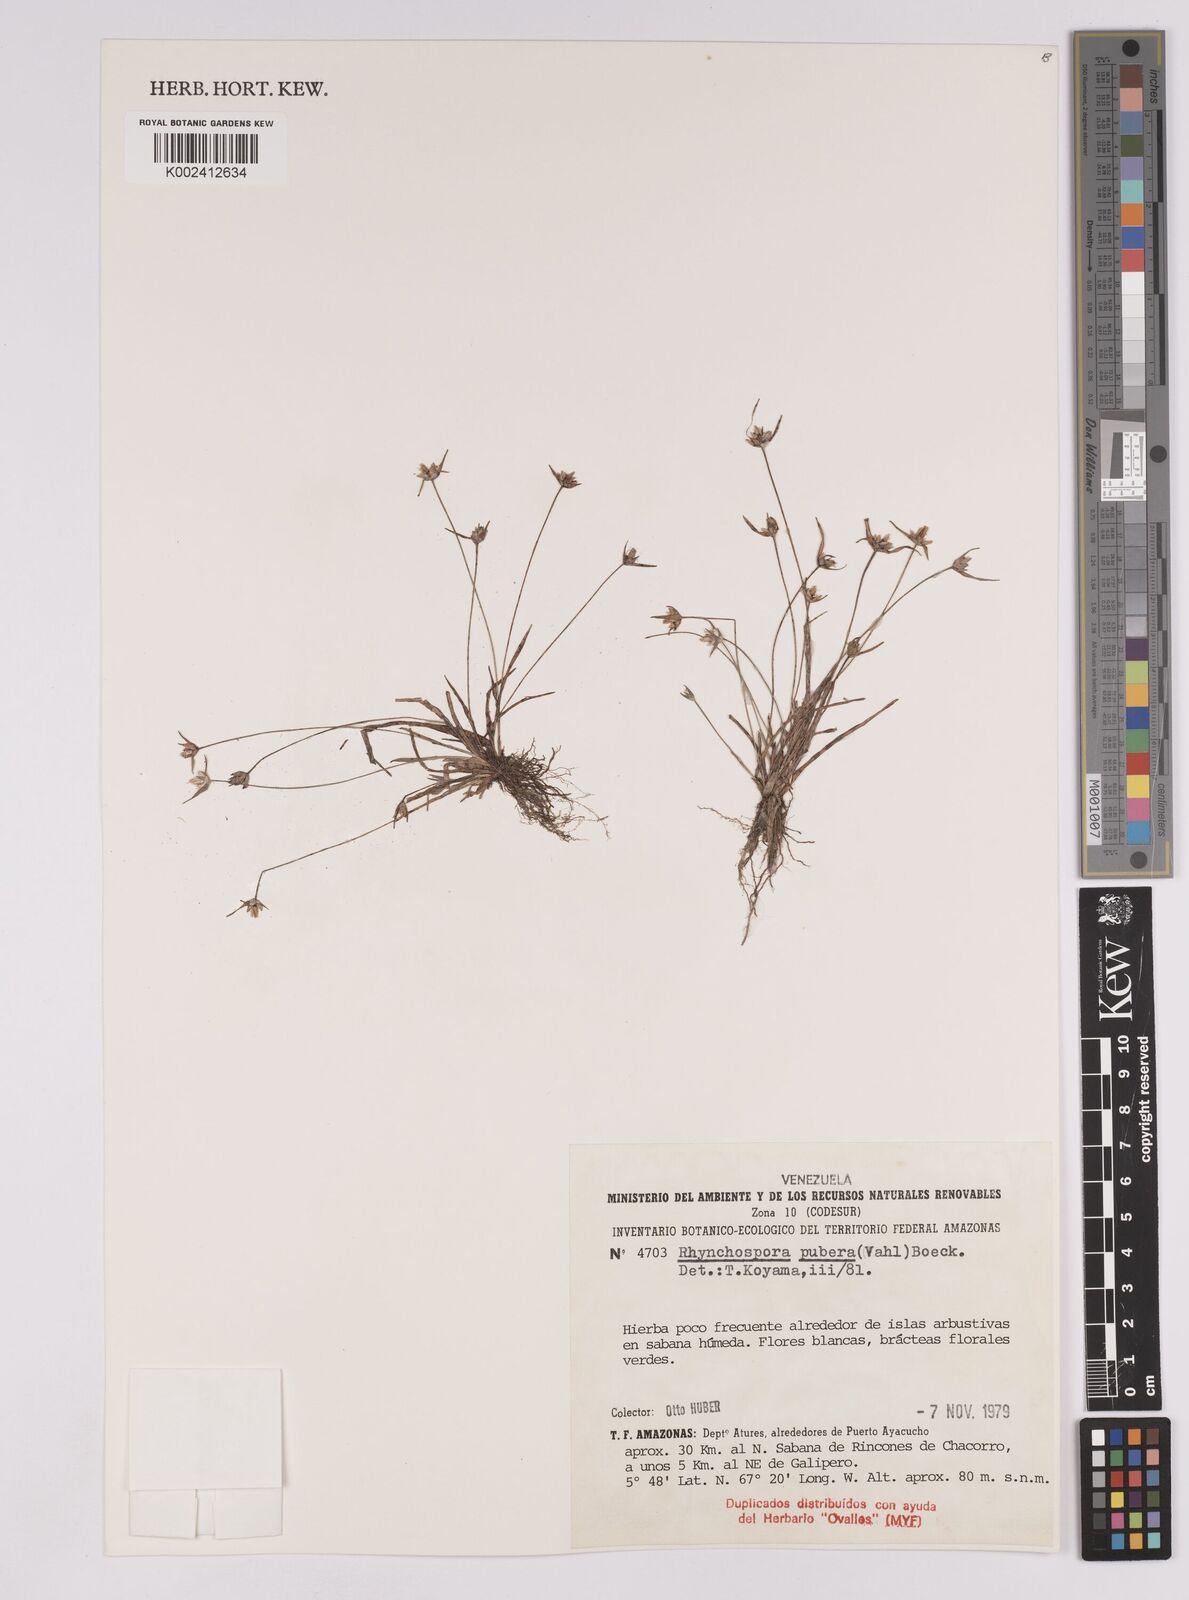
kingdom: Plantae
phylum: Tracheophyta
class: Liliopsida
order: Poales
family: Cyperaceae
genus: Rhynchospora
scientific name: Rhynchospora pubera
